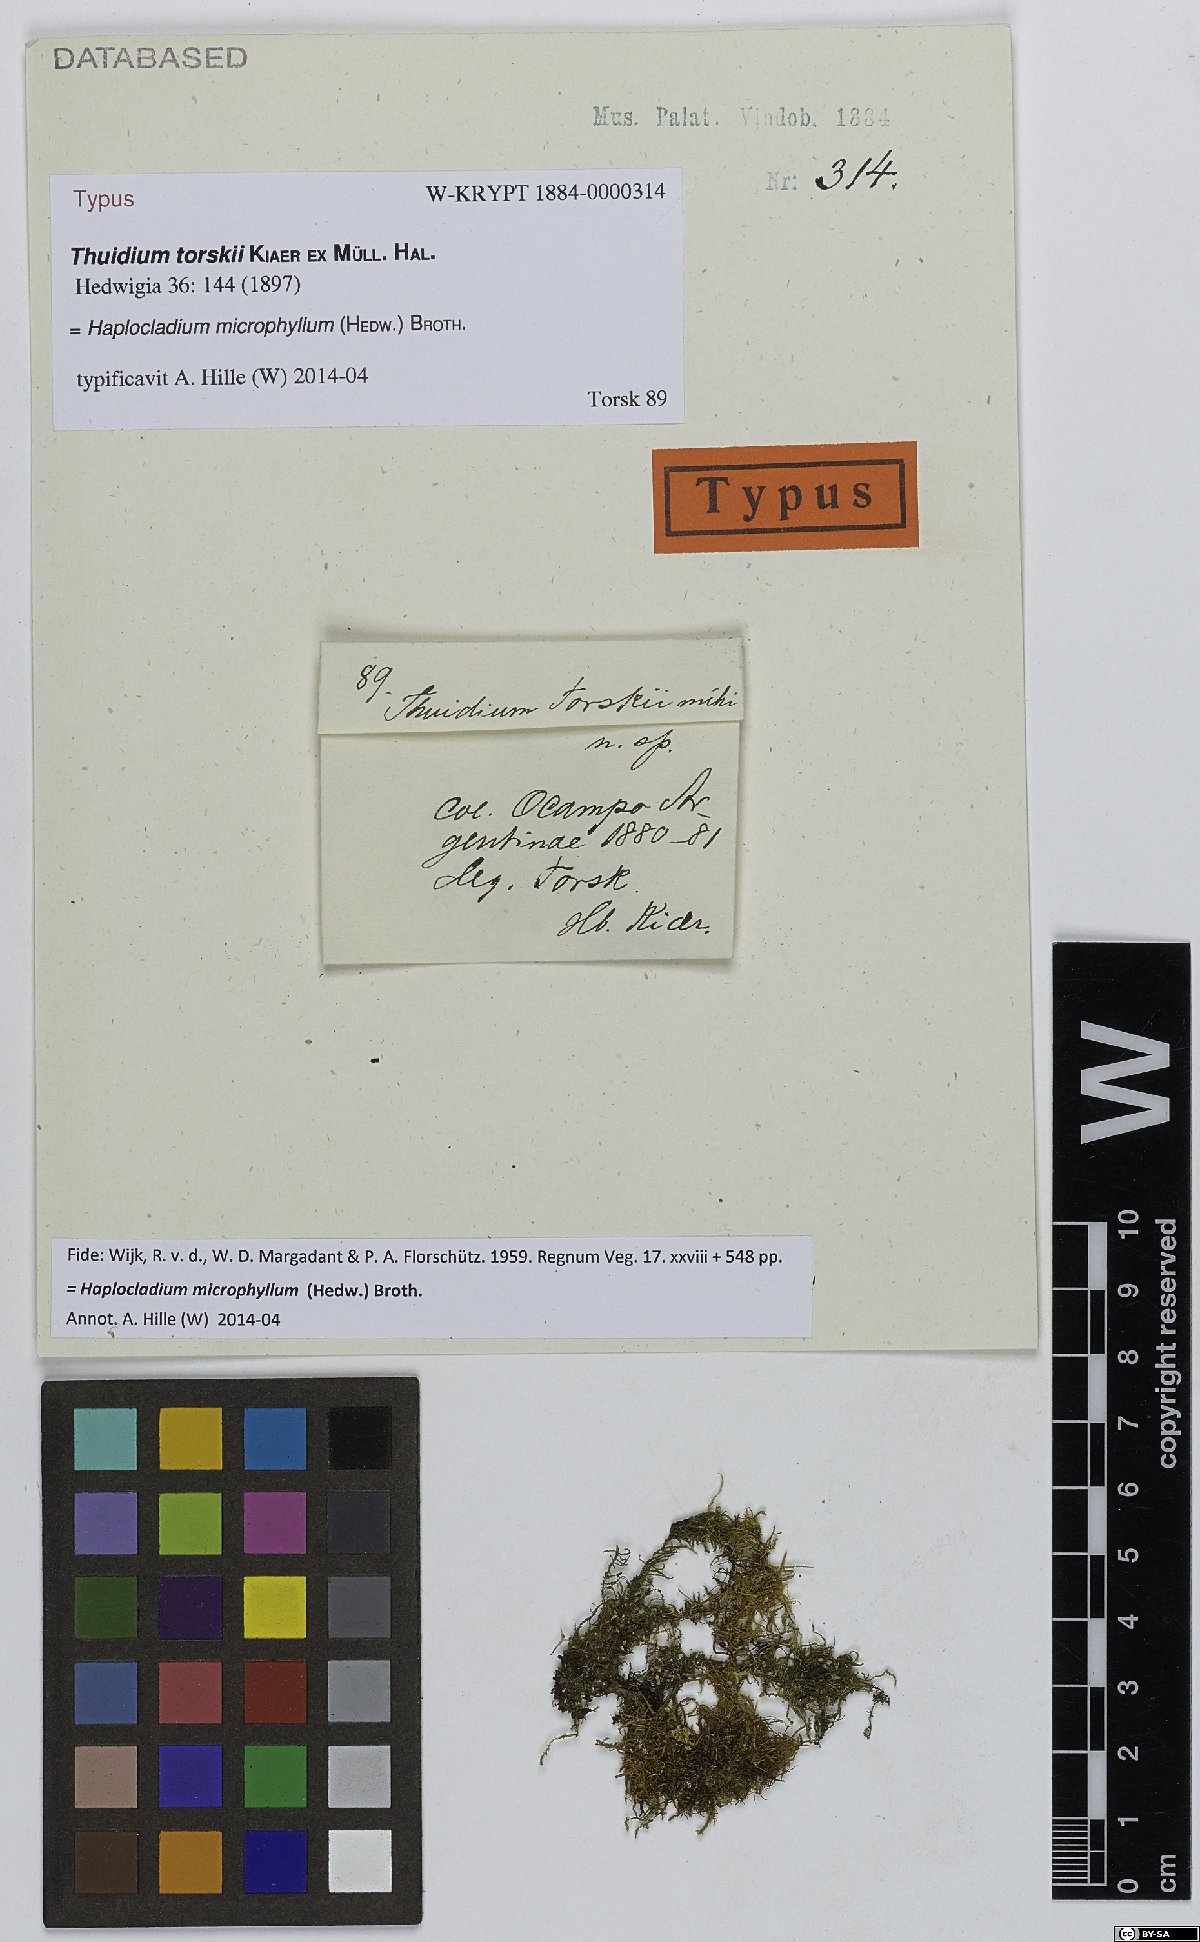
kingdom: Plantae
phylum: Bryophyta
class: Bryopsida
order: Hypnales
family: Leskeaceae
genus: Haplocladium
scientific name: Haplocladium microphyllum
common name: Tiny-leaved haplocladium
